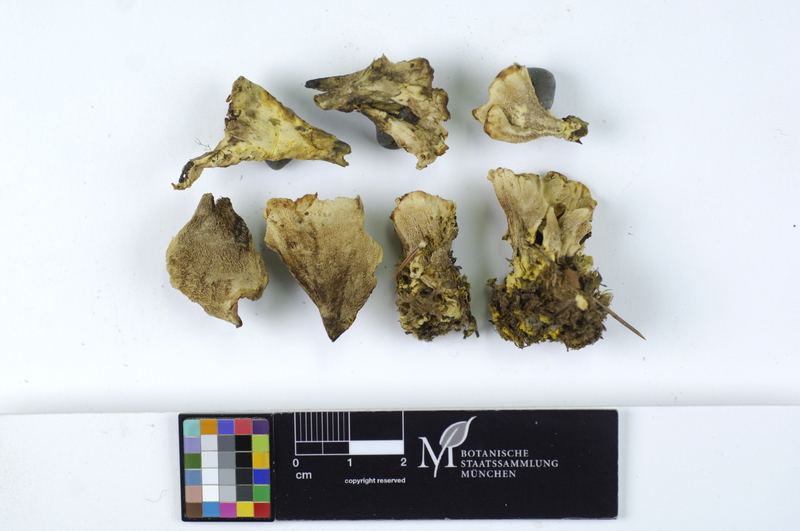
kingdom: Fungi
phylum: Basidiomycota
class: Agaricomycetes
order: Thelephorales
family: Bankeraceae
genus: Hydnellum
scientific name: Hydnellum geogenium
